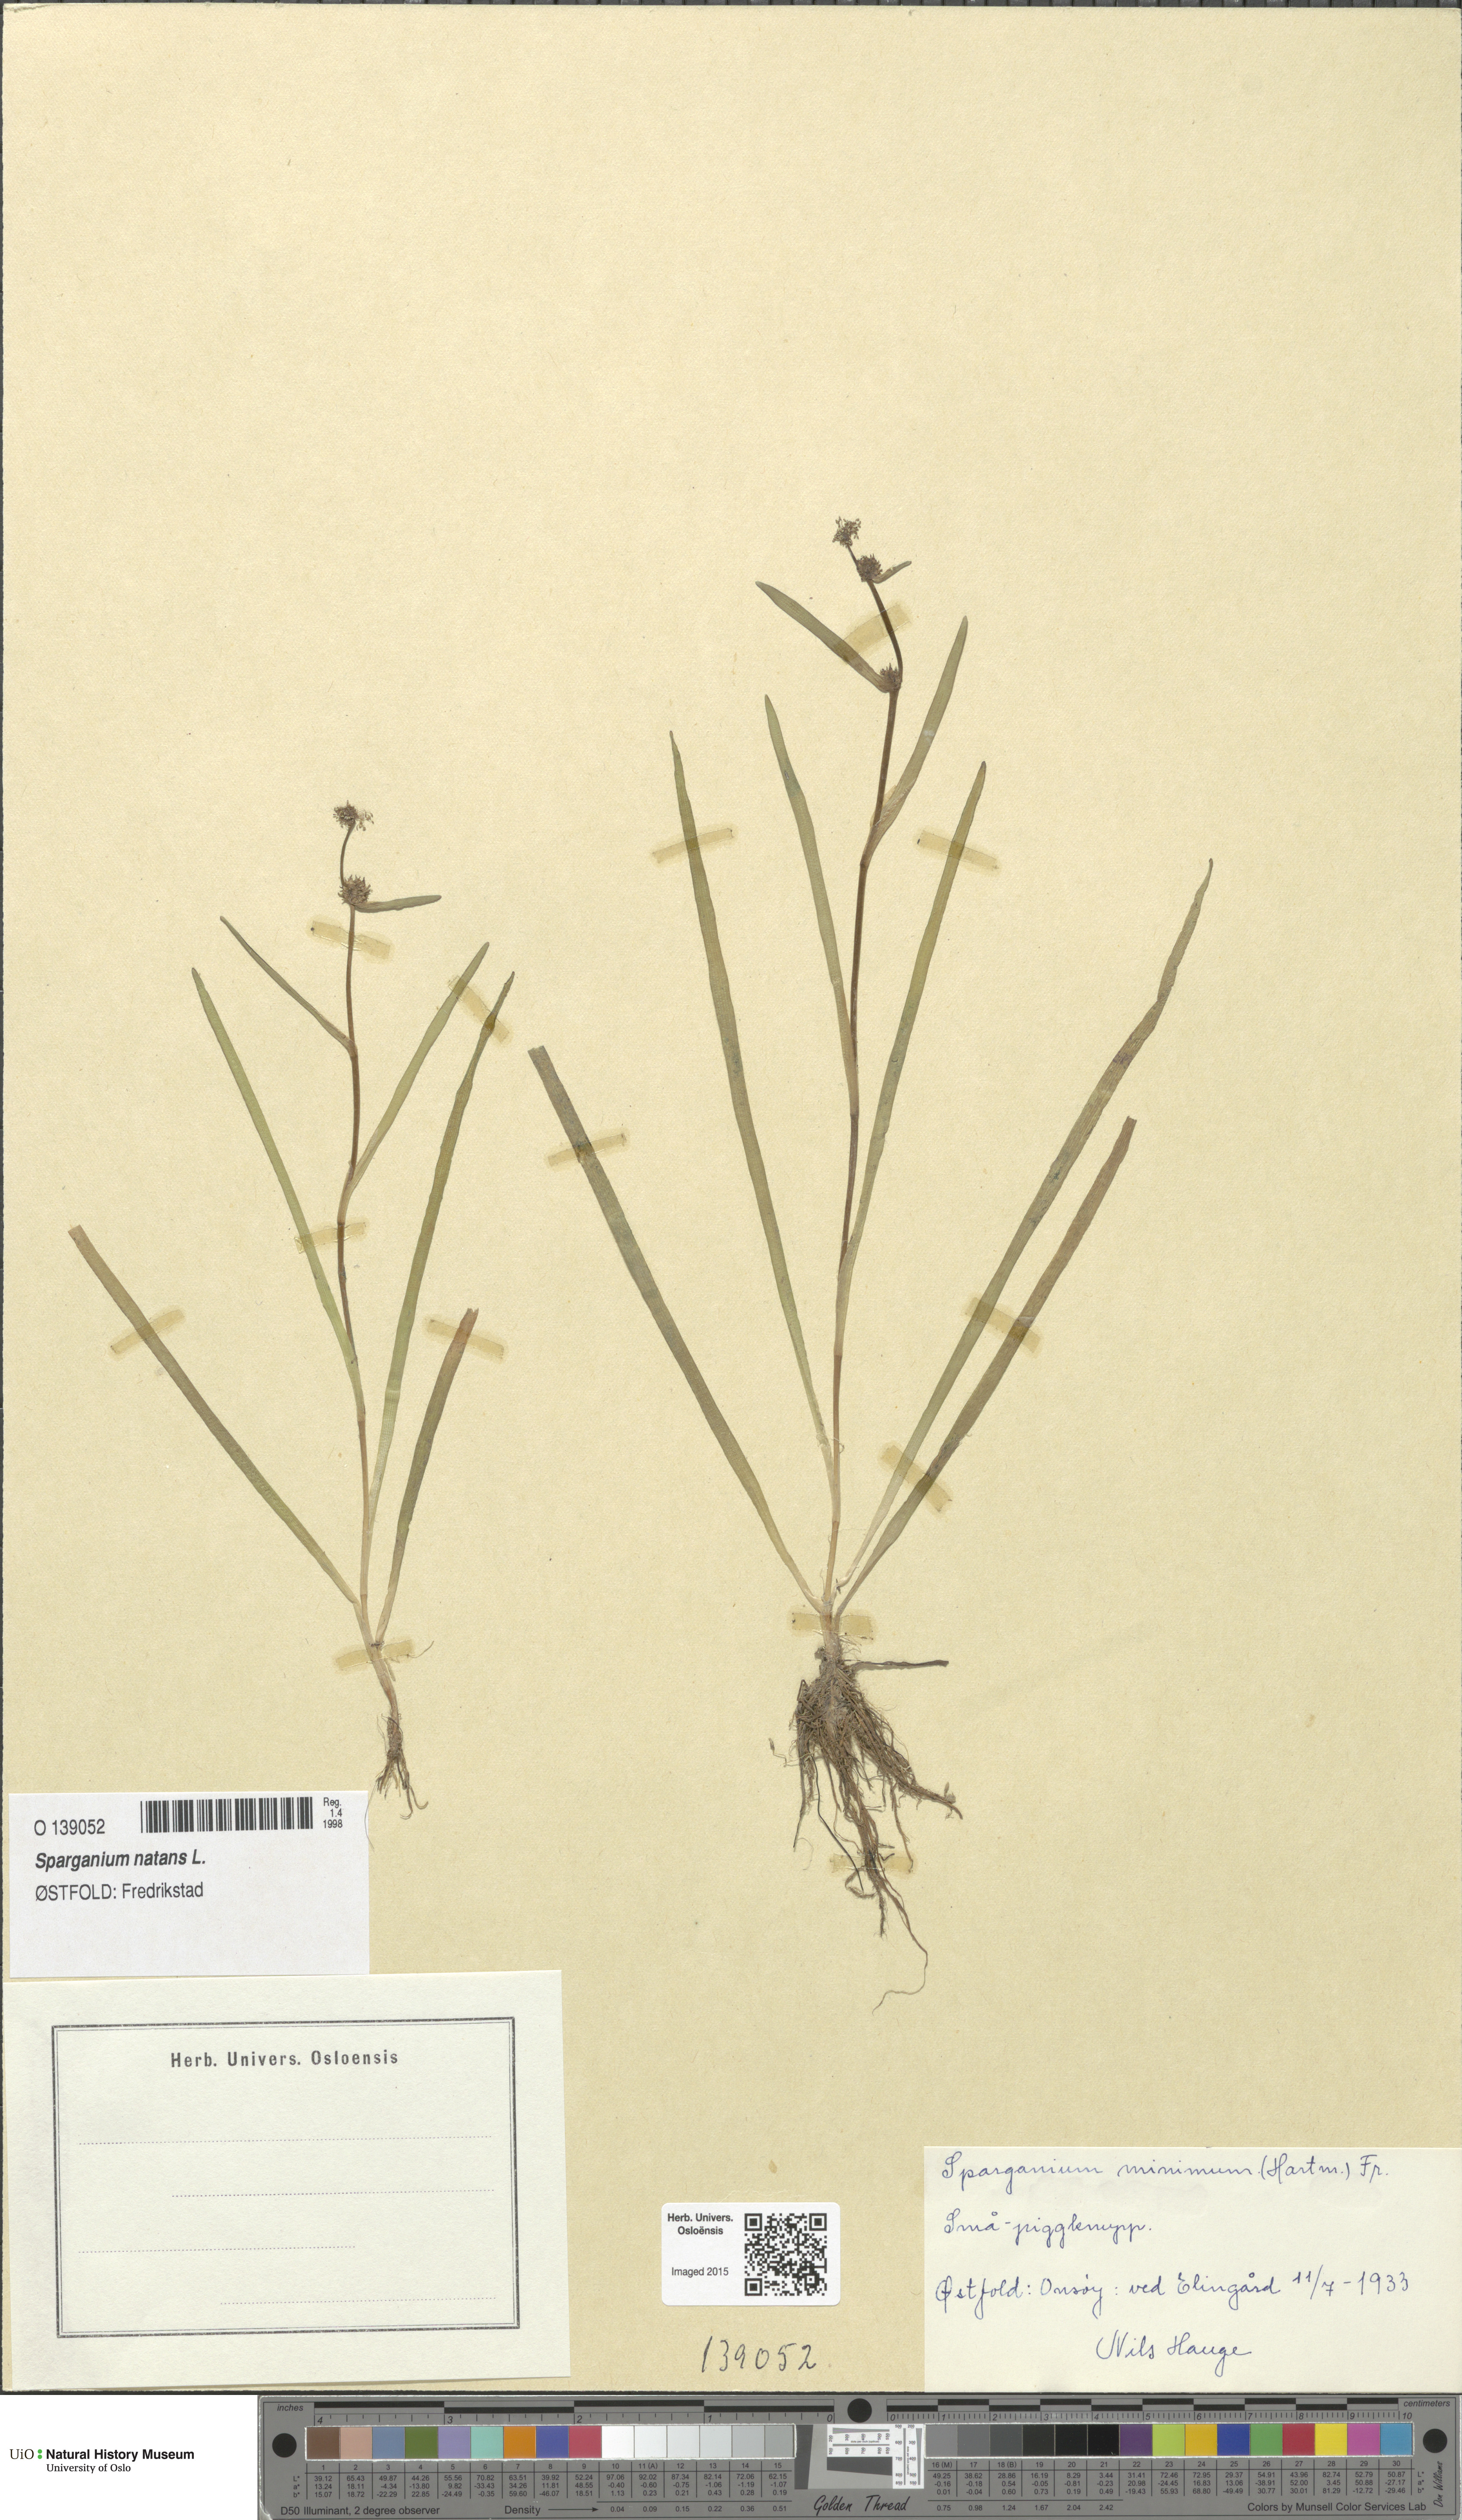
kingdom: Plantae
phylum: Tracheophyta
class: Liliopsida
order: Poales
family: Typhaceae
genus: Sparganium
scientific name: Sparganium natans
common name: Least bur-reed
